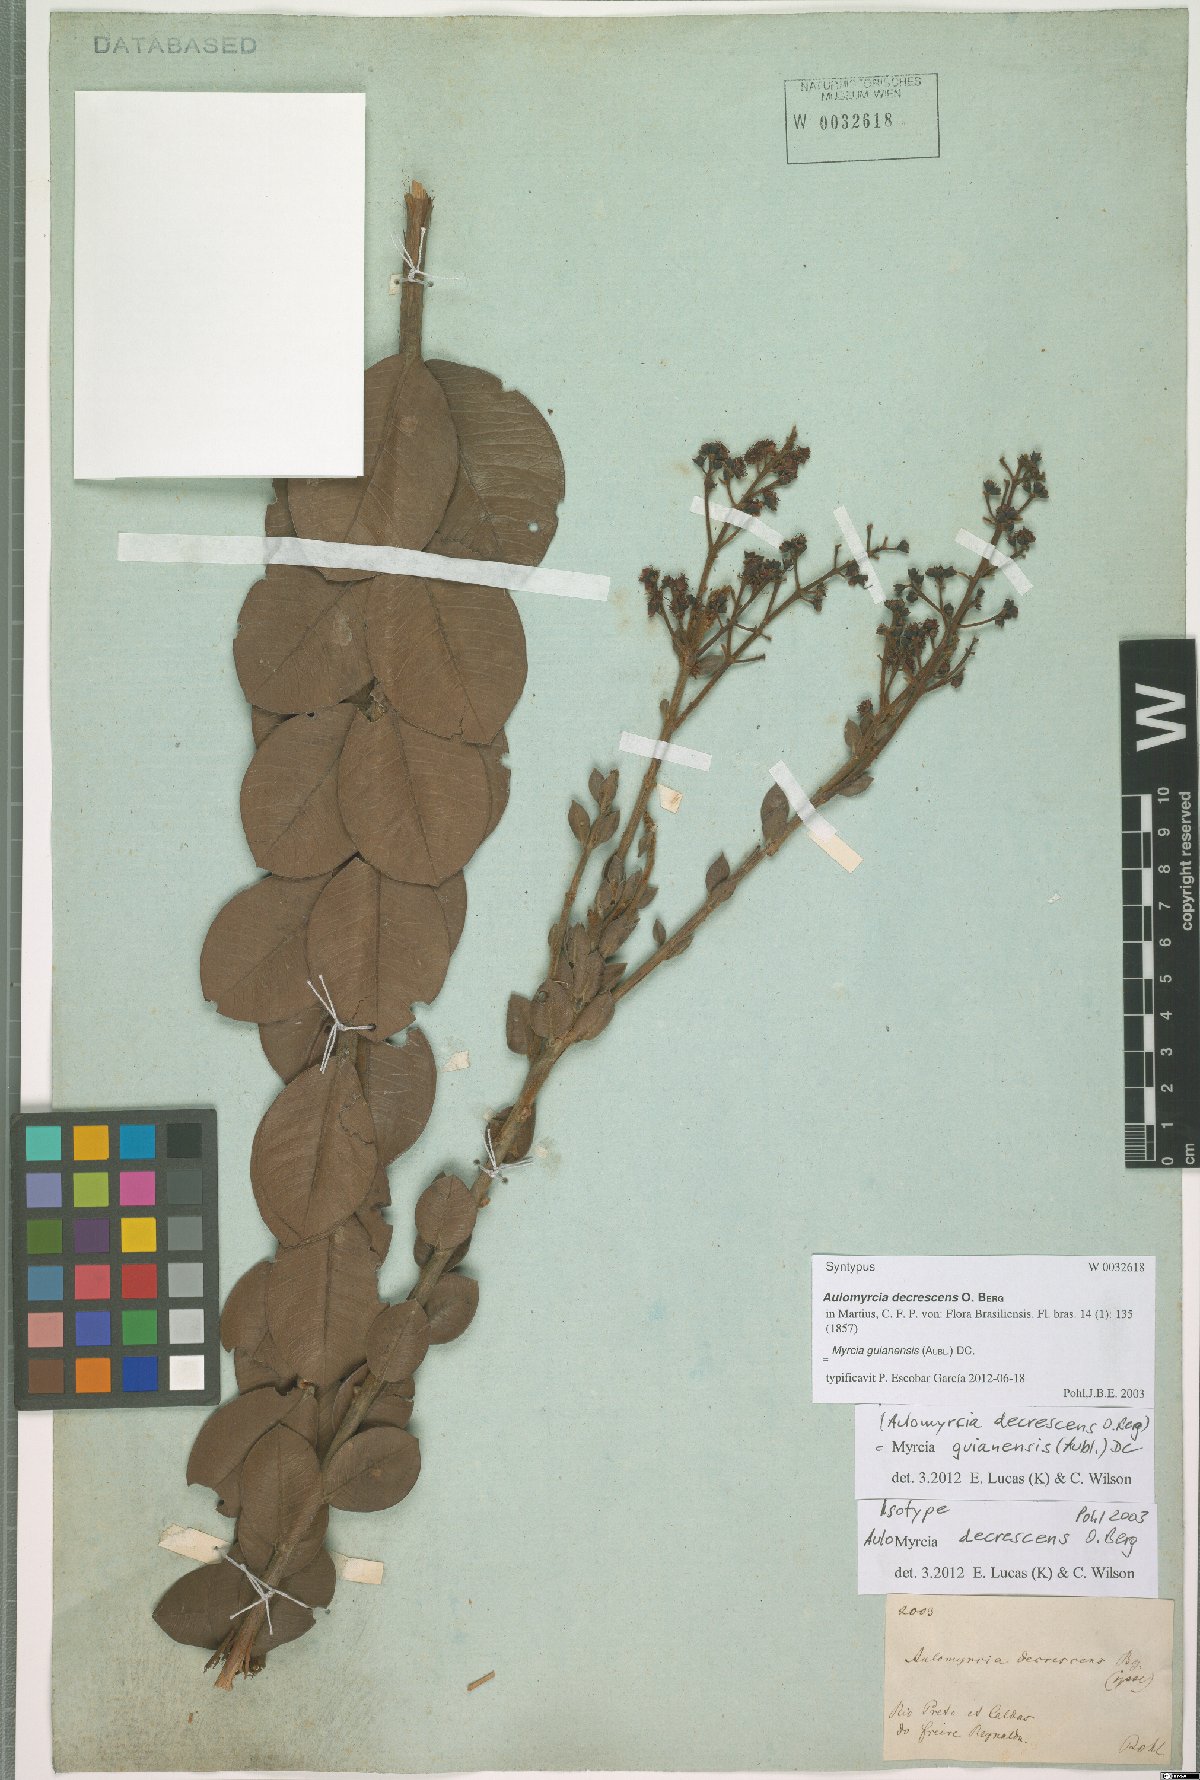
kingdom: Plantae
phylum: Tracheophyta
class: Magnoliopsida
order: Myrtales
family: Myrtaceae
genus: Myrcia
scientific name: Myrcia guianensis
